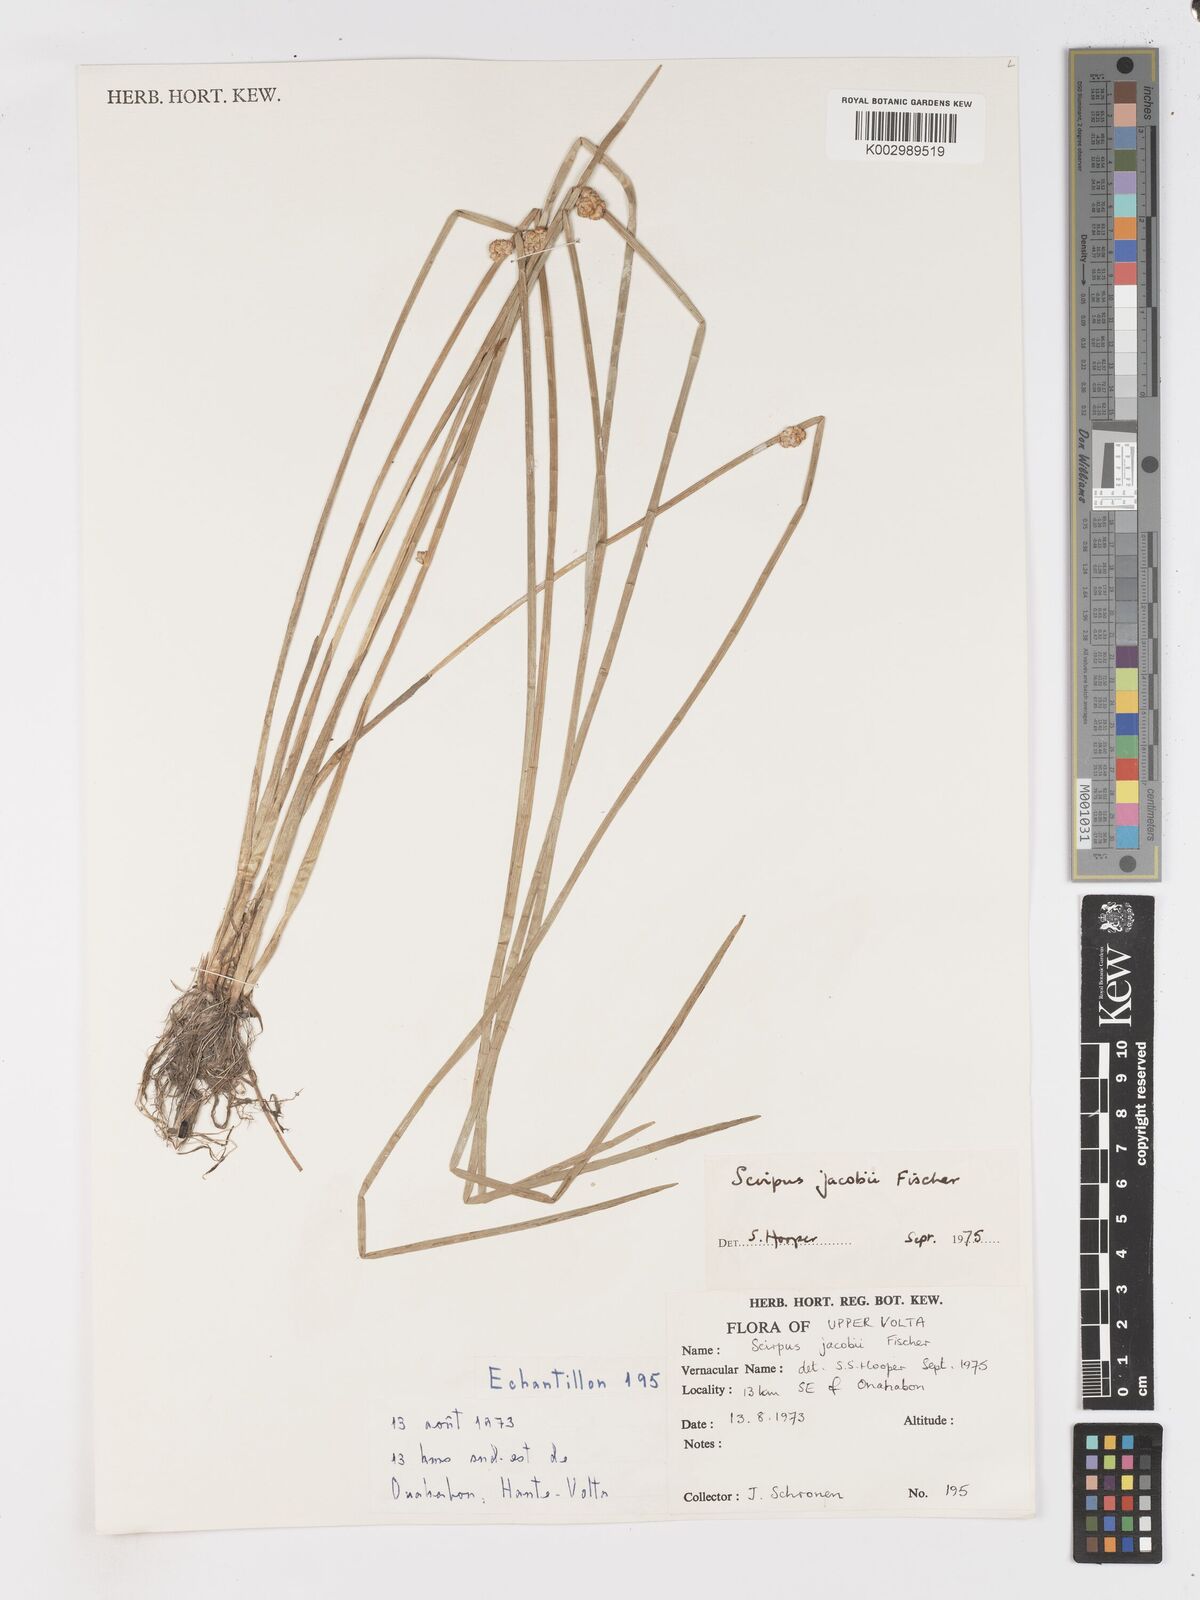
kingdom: Plantae
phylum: Tracheophyta
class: Liliopsida
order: Poales
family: Cyperaceae
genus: Schoenoplectiella
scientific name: Schoenoplectiella senegalensis
